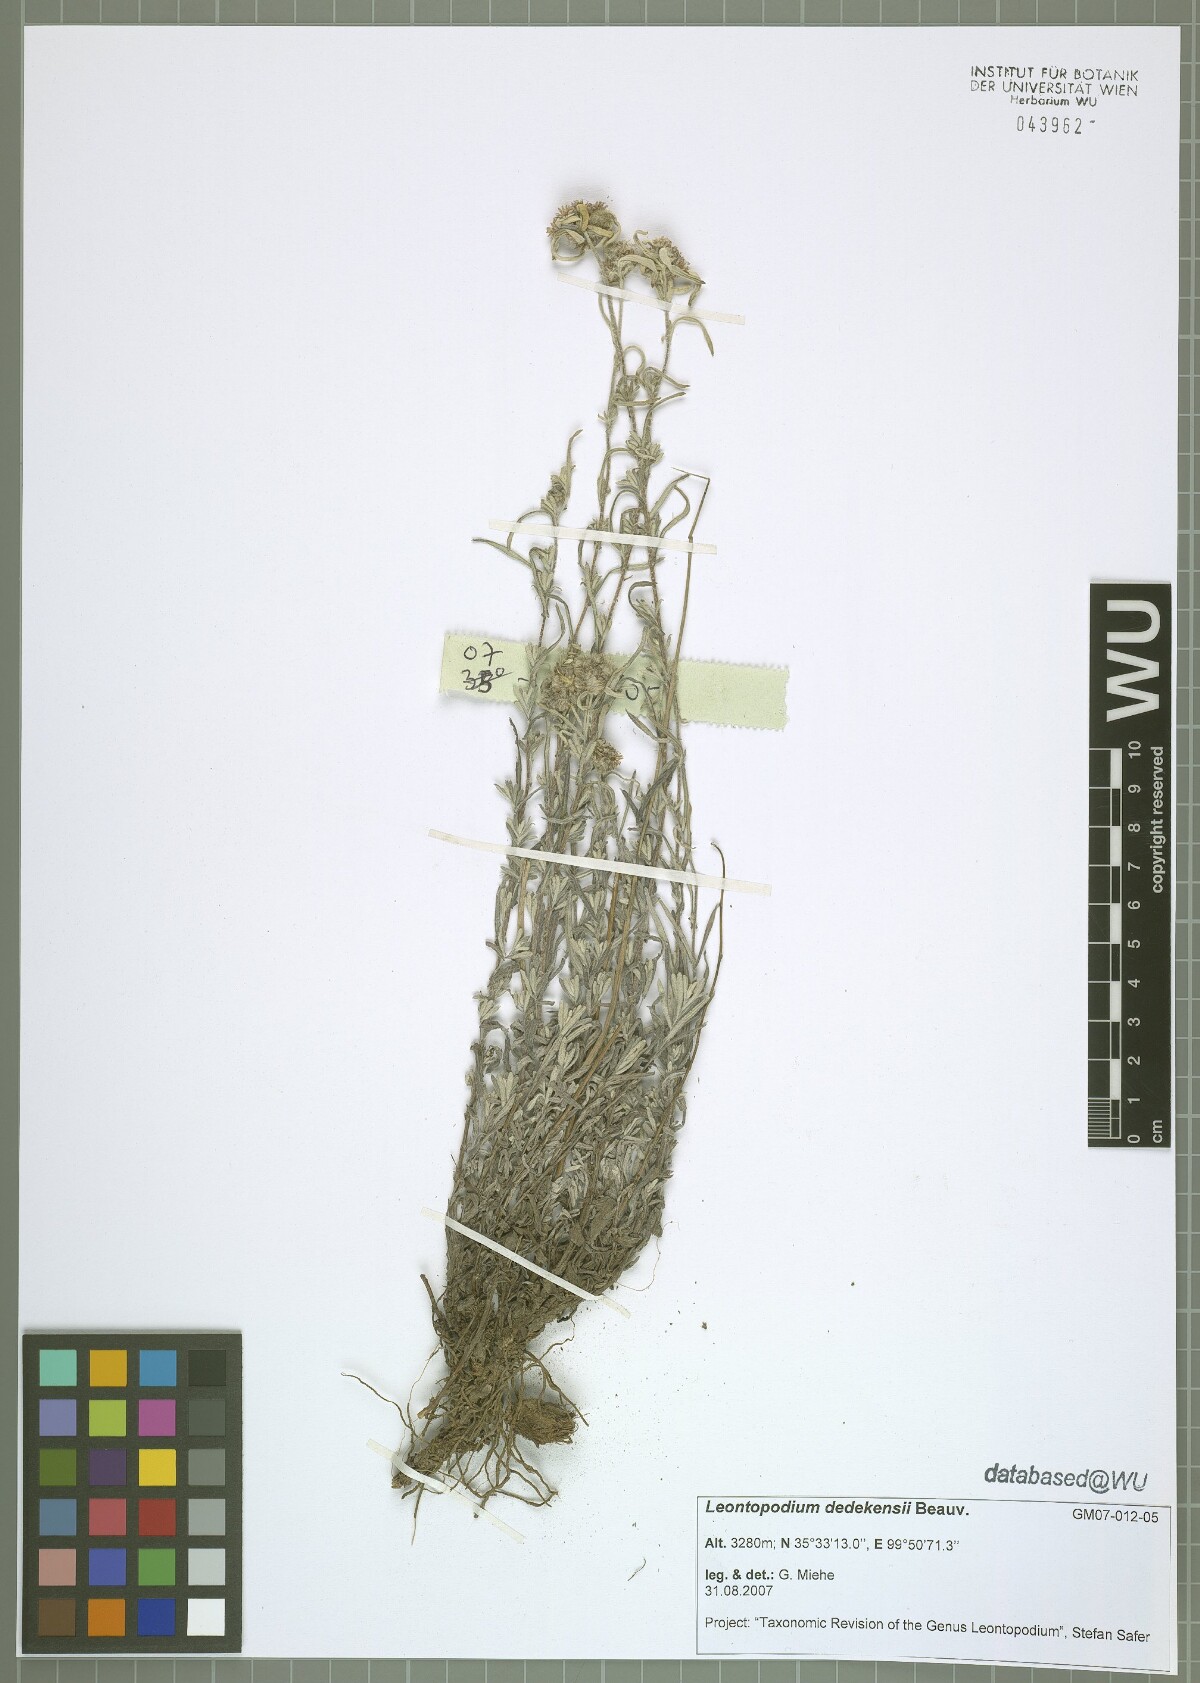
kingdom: Plantae
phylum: Tracheophyta
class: Magnoliopsida
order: Asterales
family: Asteraceae
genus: Leontopodium
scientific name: Leontopodium dedekensii
